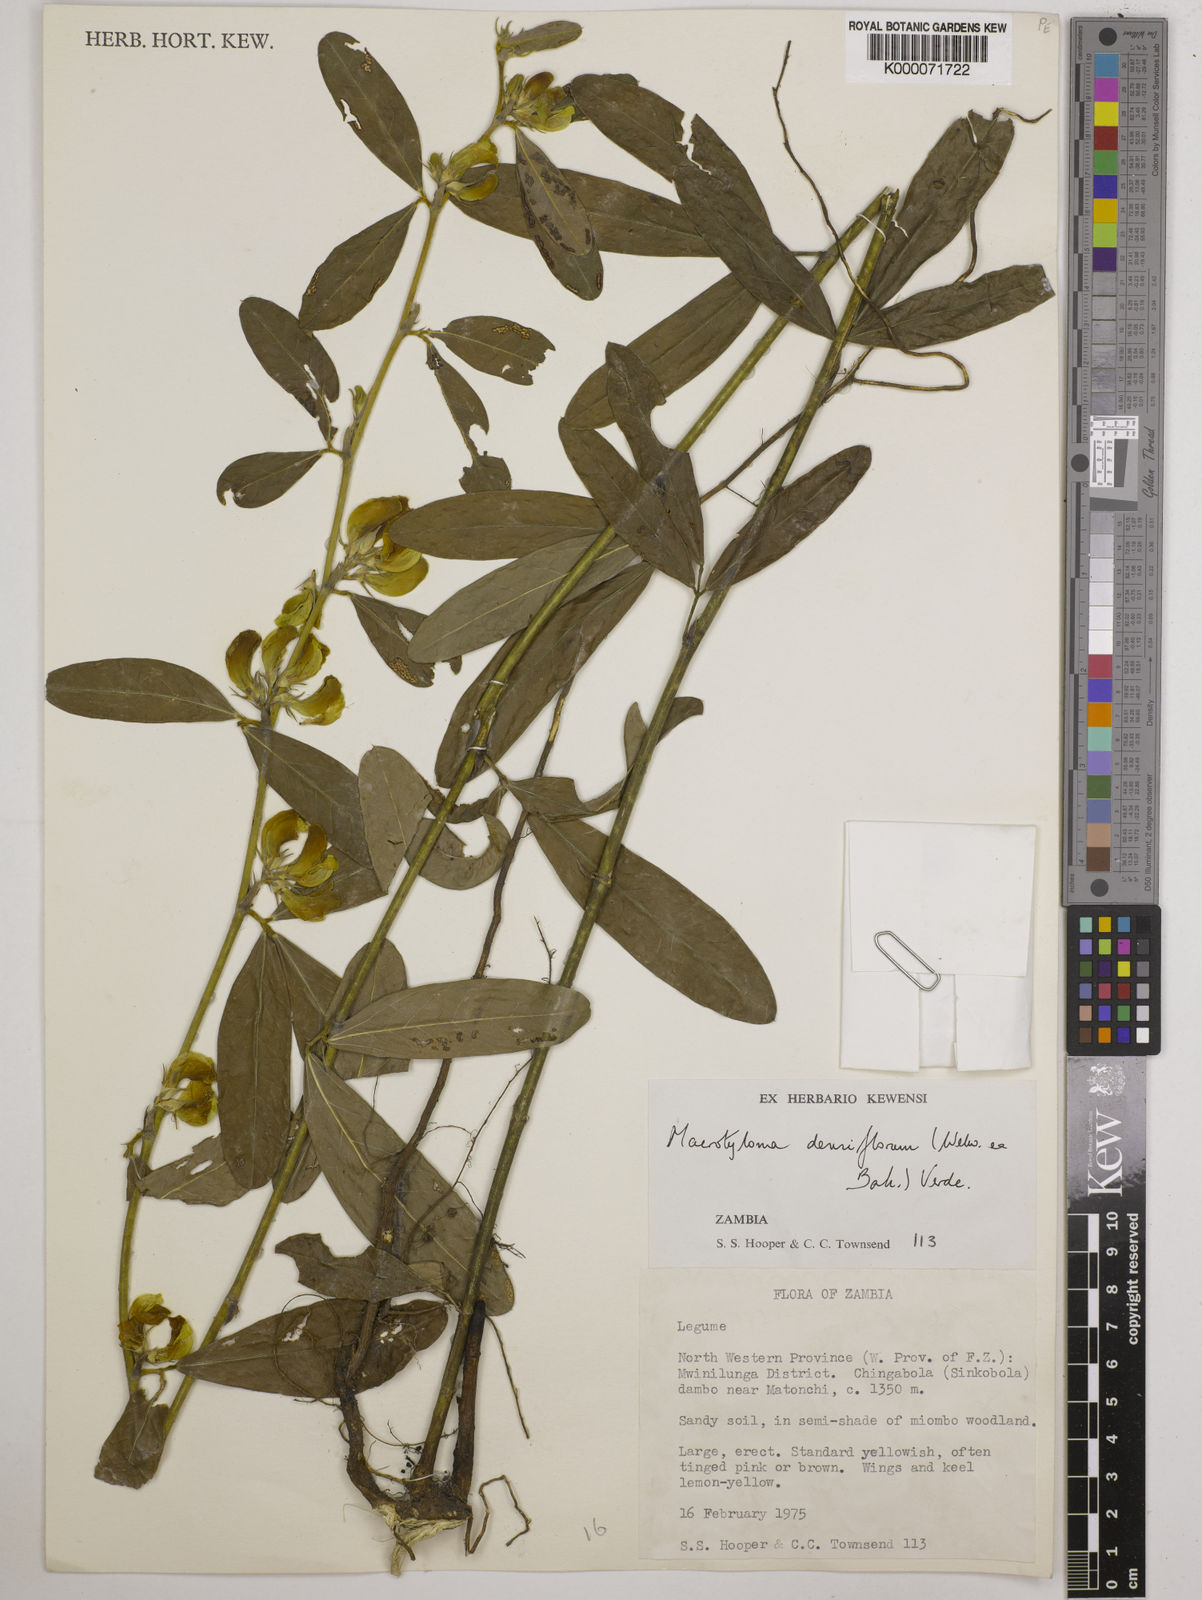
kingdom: Plantae
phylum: Tracheophyta
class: Magnoliopsida
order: Fabales
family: Fabaceae
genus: Macrotyloma
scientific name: Macrotyloma densiflorum
